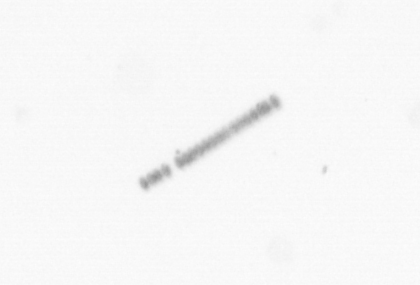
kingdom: Chromista
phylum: Ochrophyta
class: Bacillariophyceae
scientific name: Bacillariophyceae
